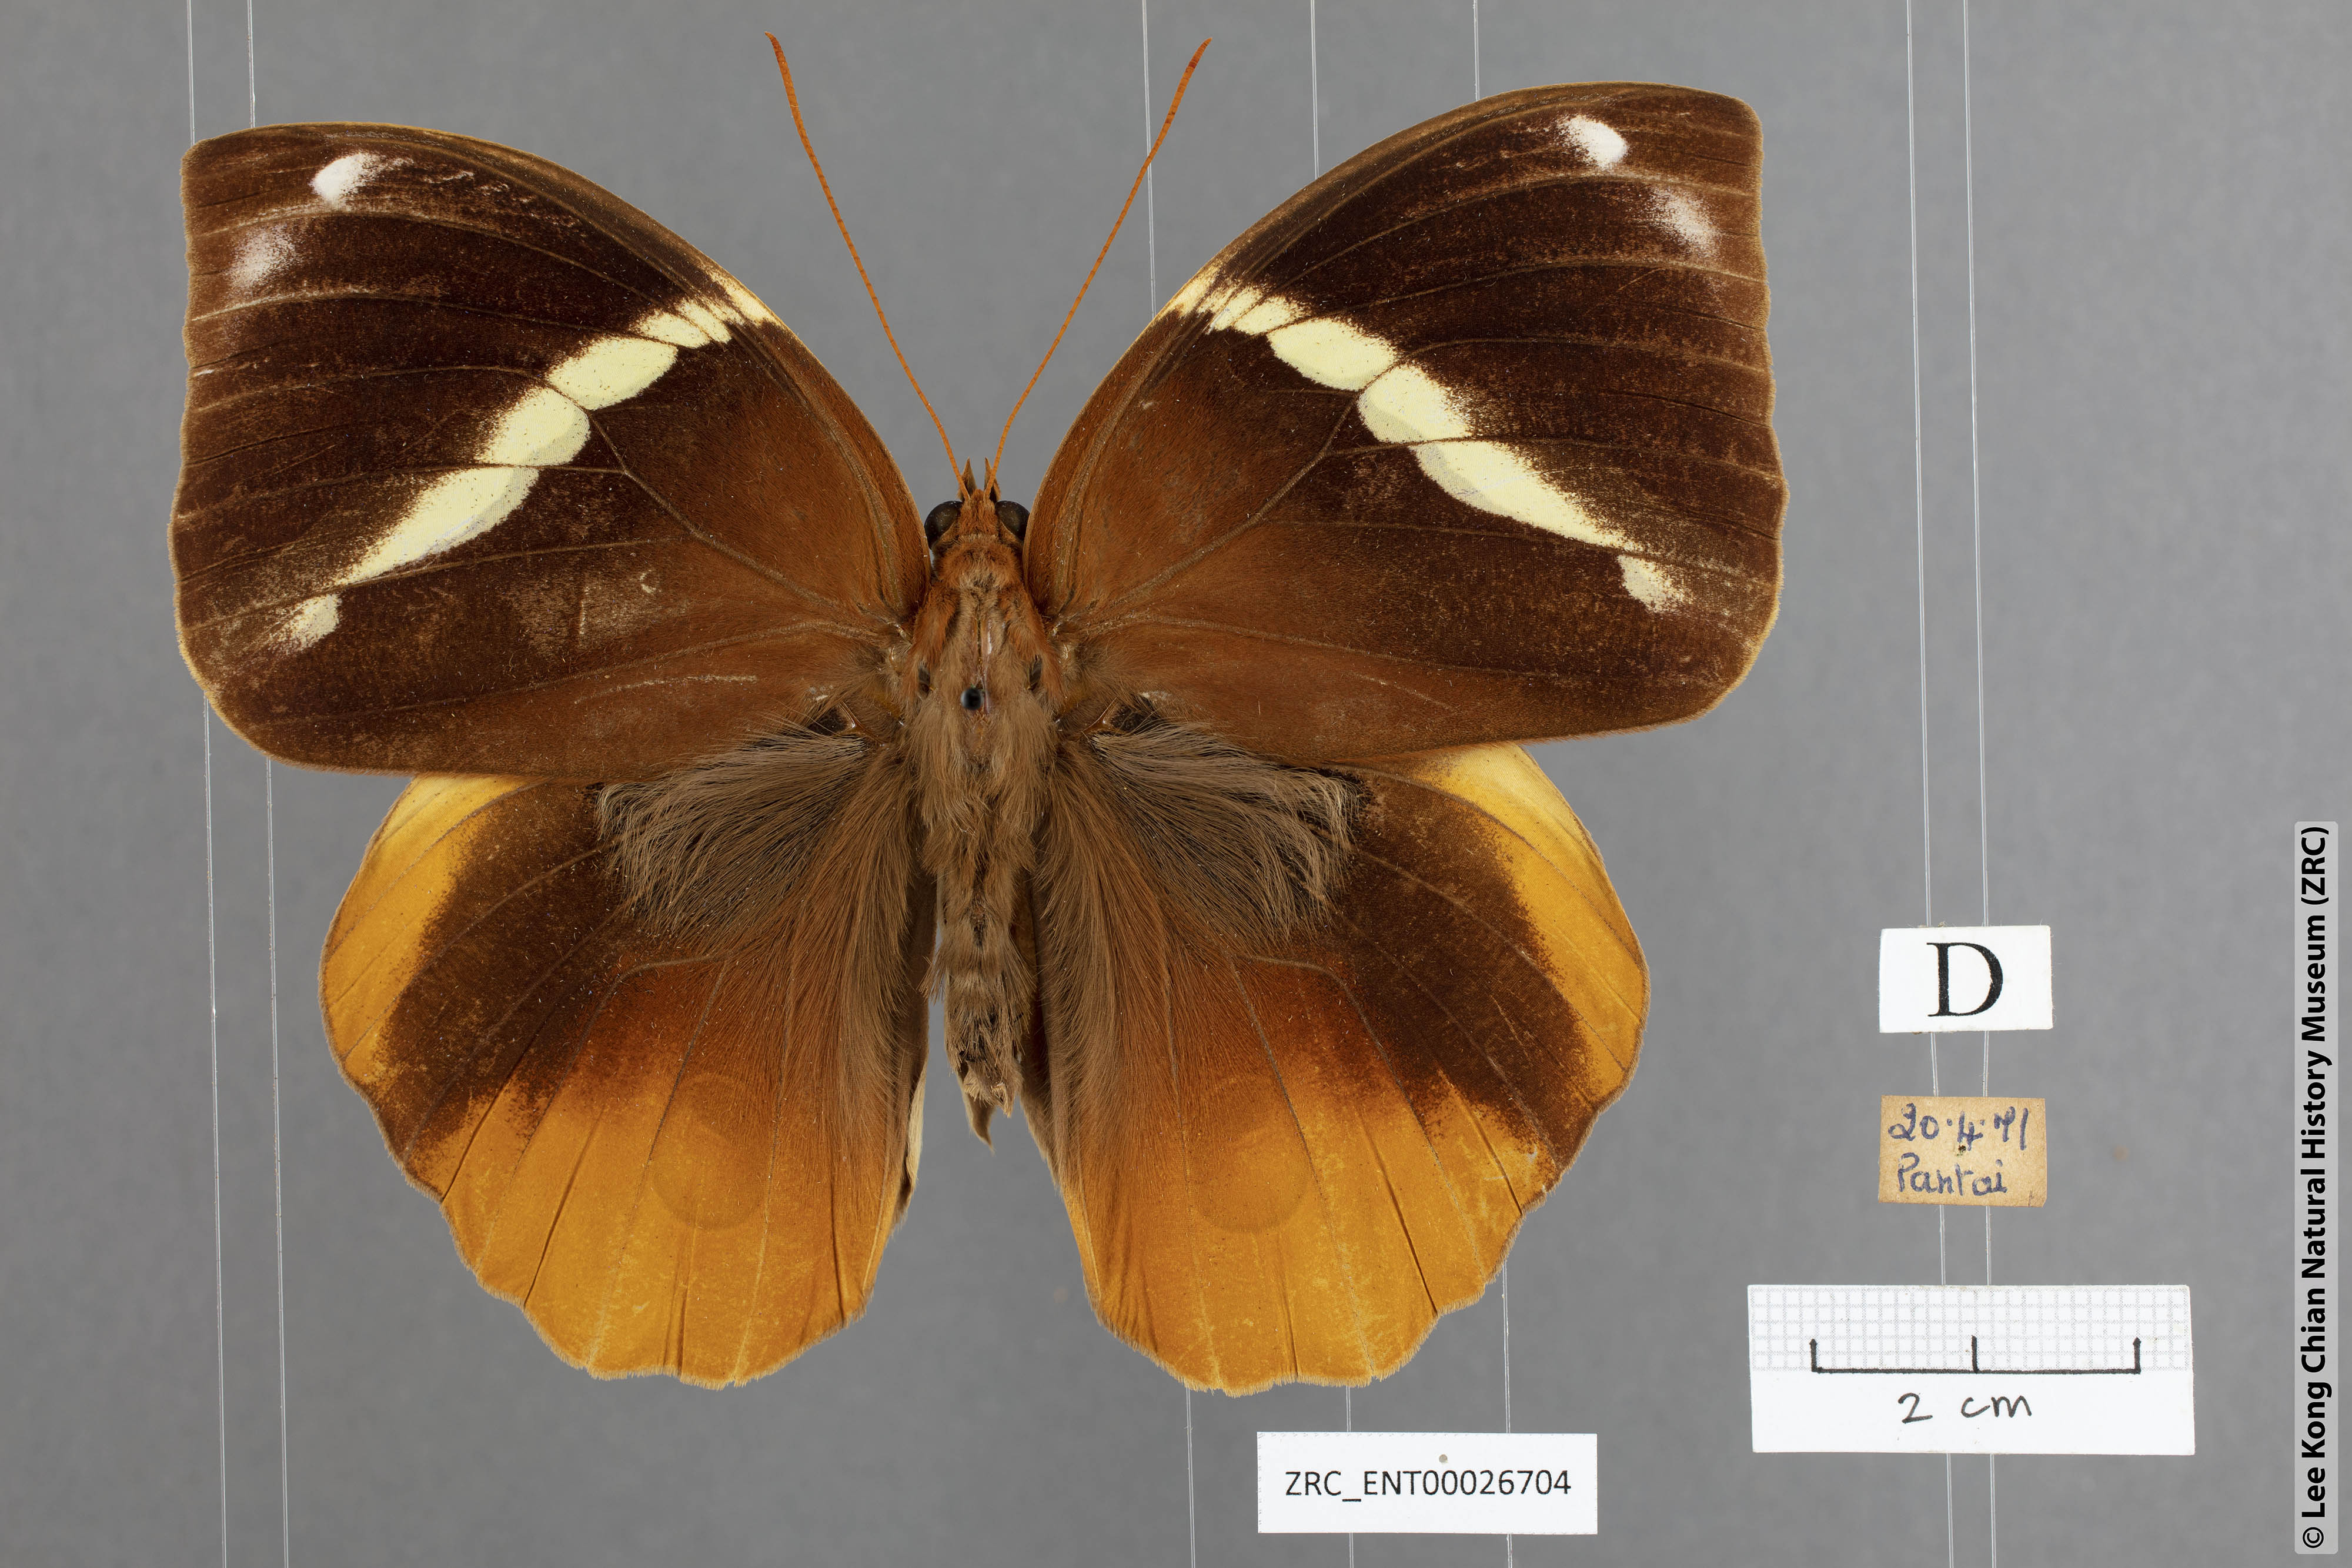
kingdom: Animalia
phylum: Arthropoda
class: Insecta
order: Lepidoptera
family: Nymphalidae
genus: Thauria
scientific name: Thauria aliris
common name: Tufted jungle king
